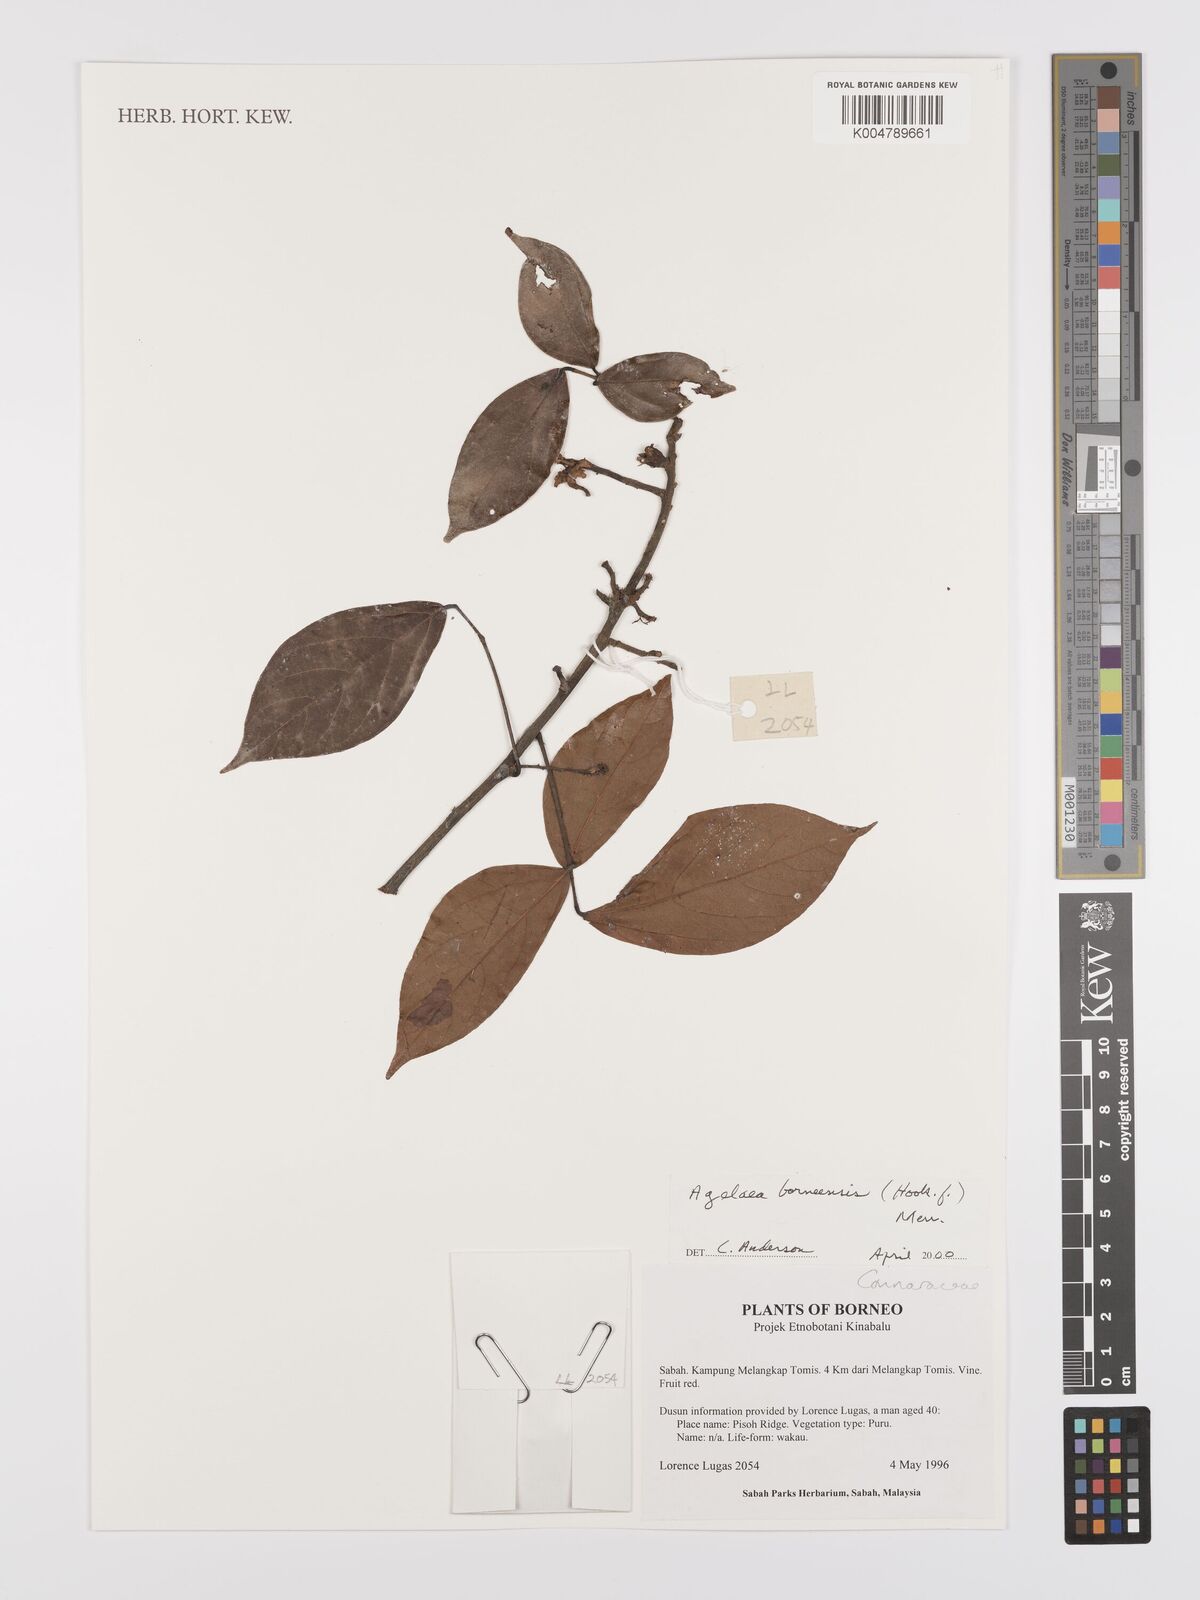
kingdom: Plantae
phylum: Tracheophyta
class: Magnoliopsida
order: Oxalidales
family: Connaraceae
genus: Agelaea
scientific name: Agelaea borneensis
